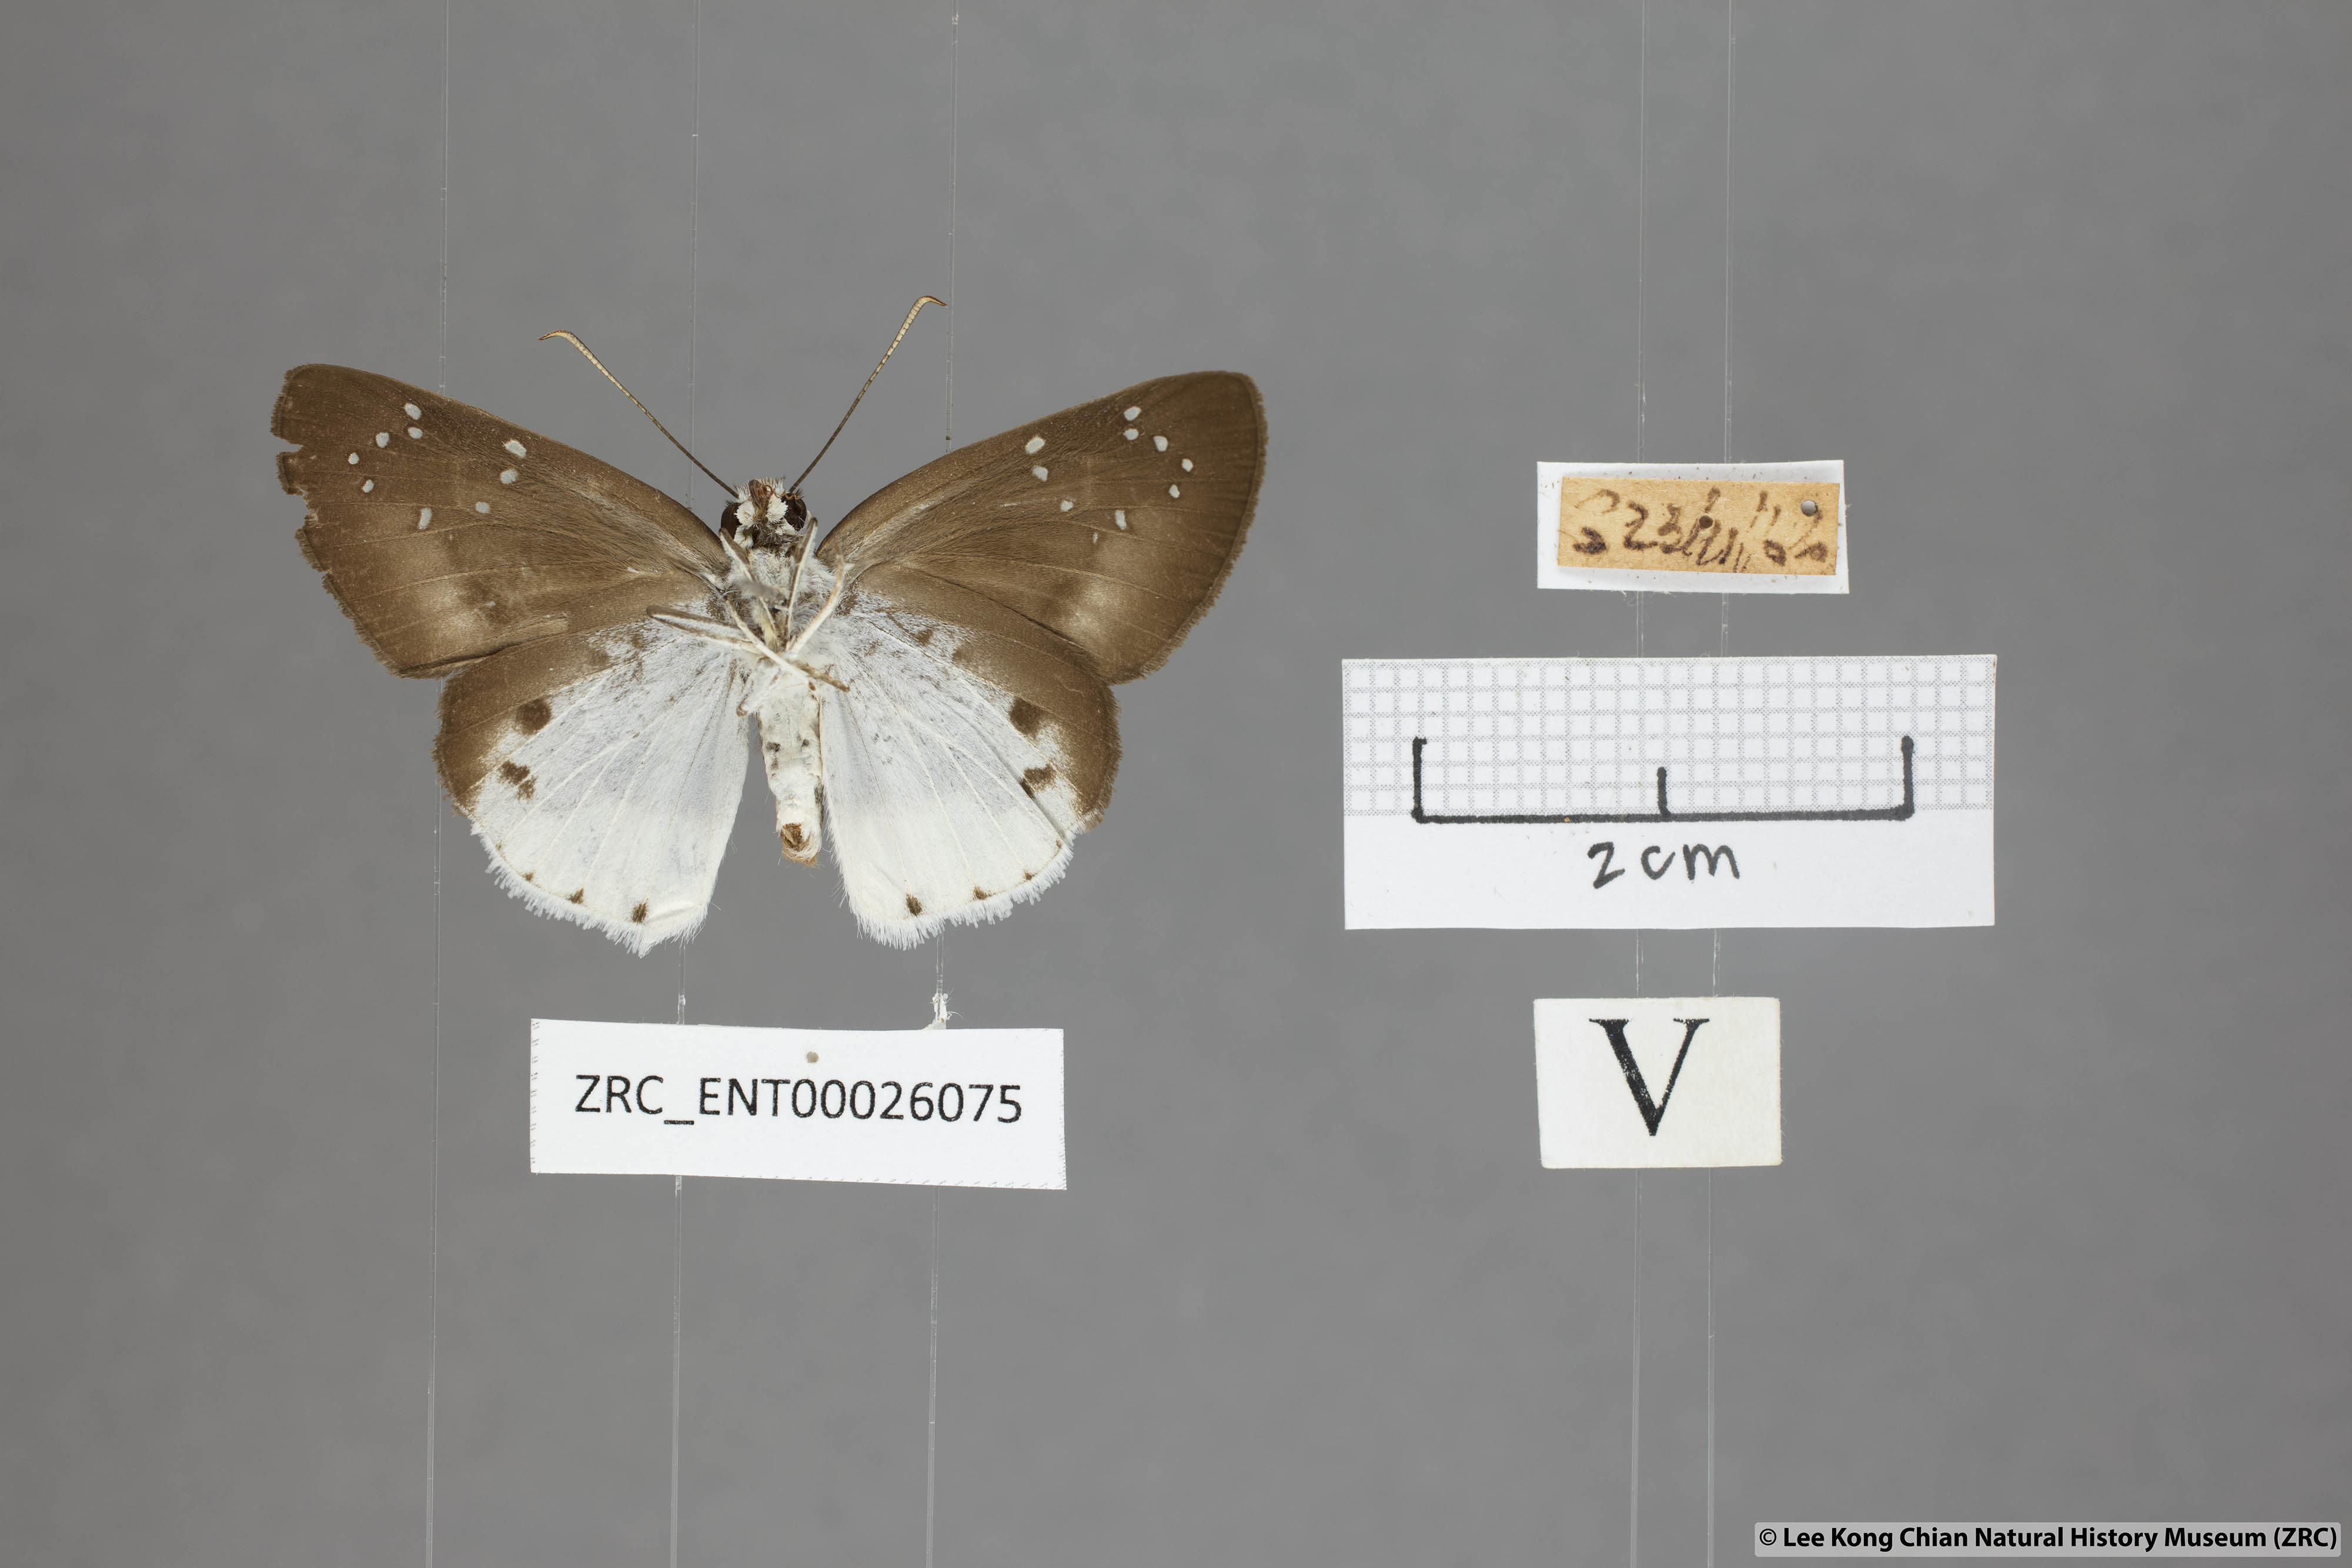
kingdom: Animalia
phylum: Arthropoda
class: Insecta
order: Lepidoptera
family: Hesperiidae
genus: Tagiades
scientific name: Tagiades waterstradti
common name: Waterstradt snow flat
